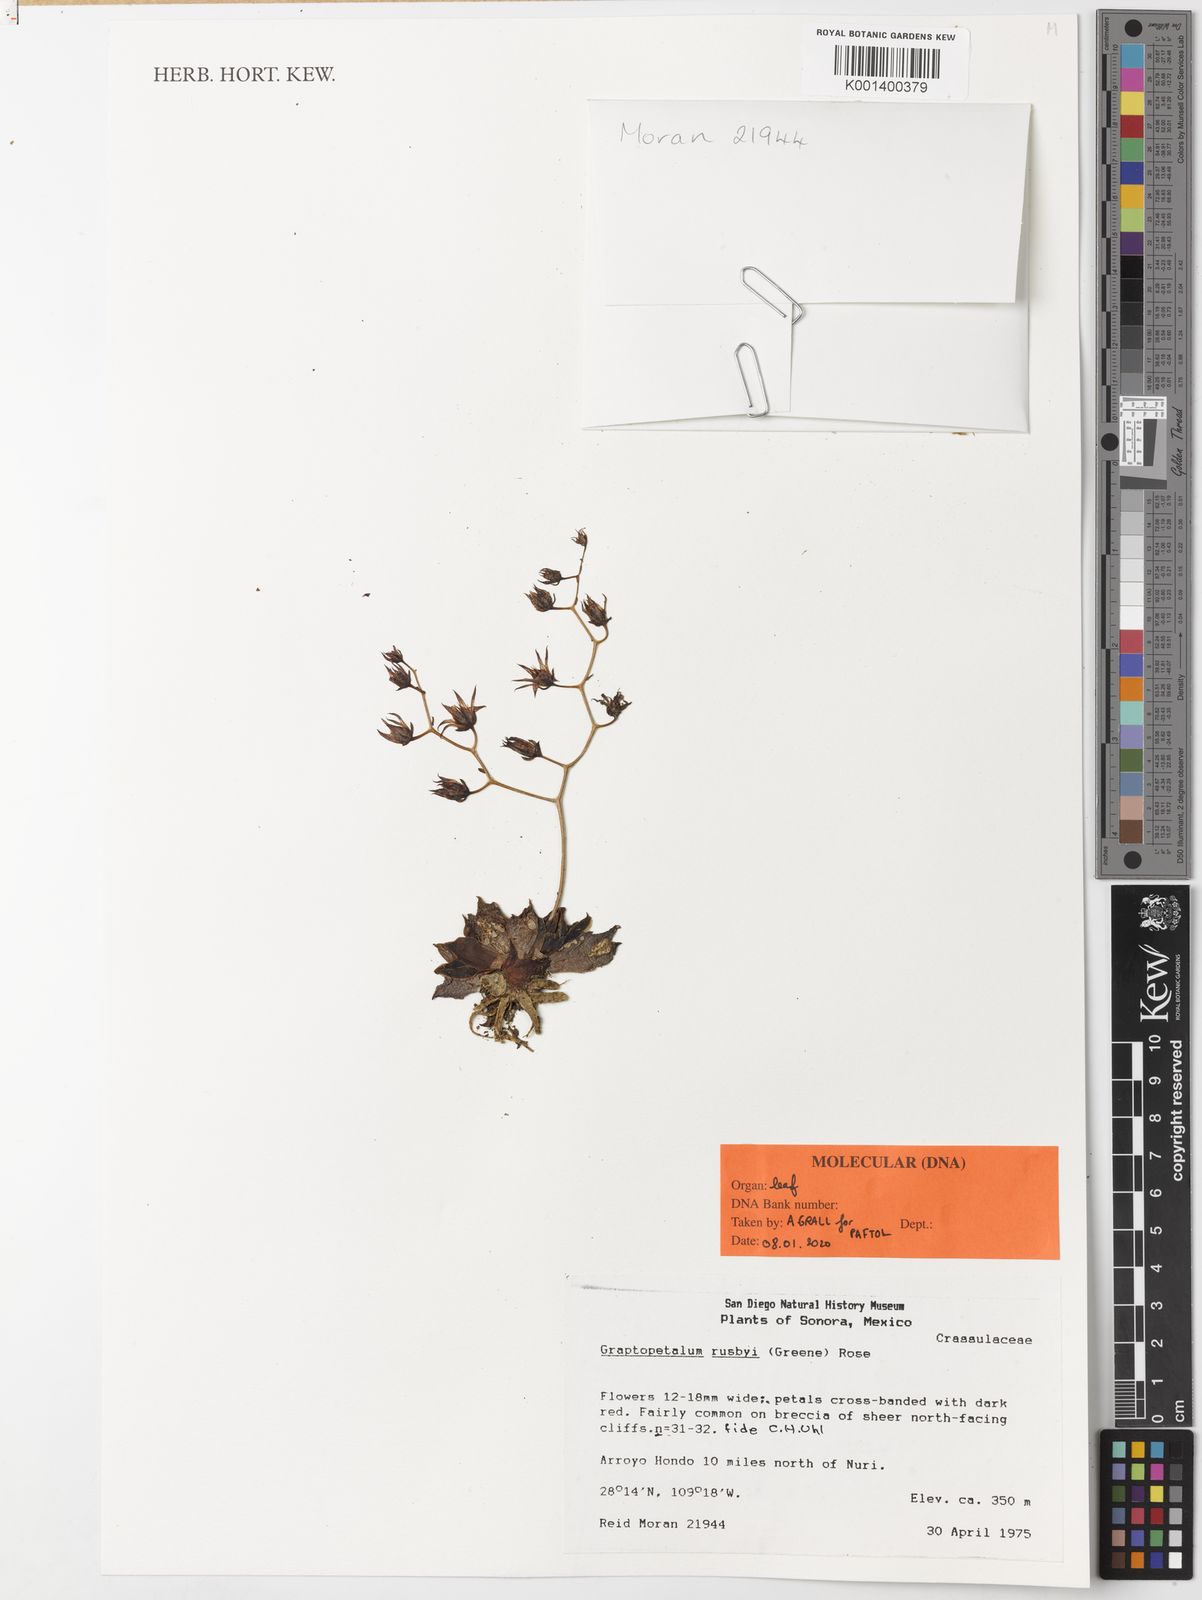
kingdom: Plantae
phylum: Tracheophyta
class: Magnoliopsida
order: Saxifragales
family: Crassulaceae
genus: Graptopetalum
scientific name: Graptopetalum rusbyi
